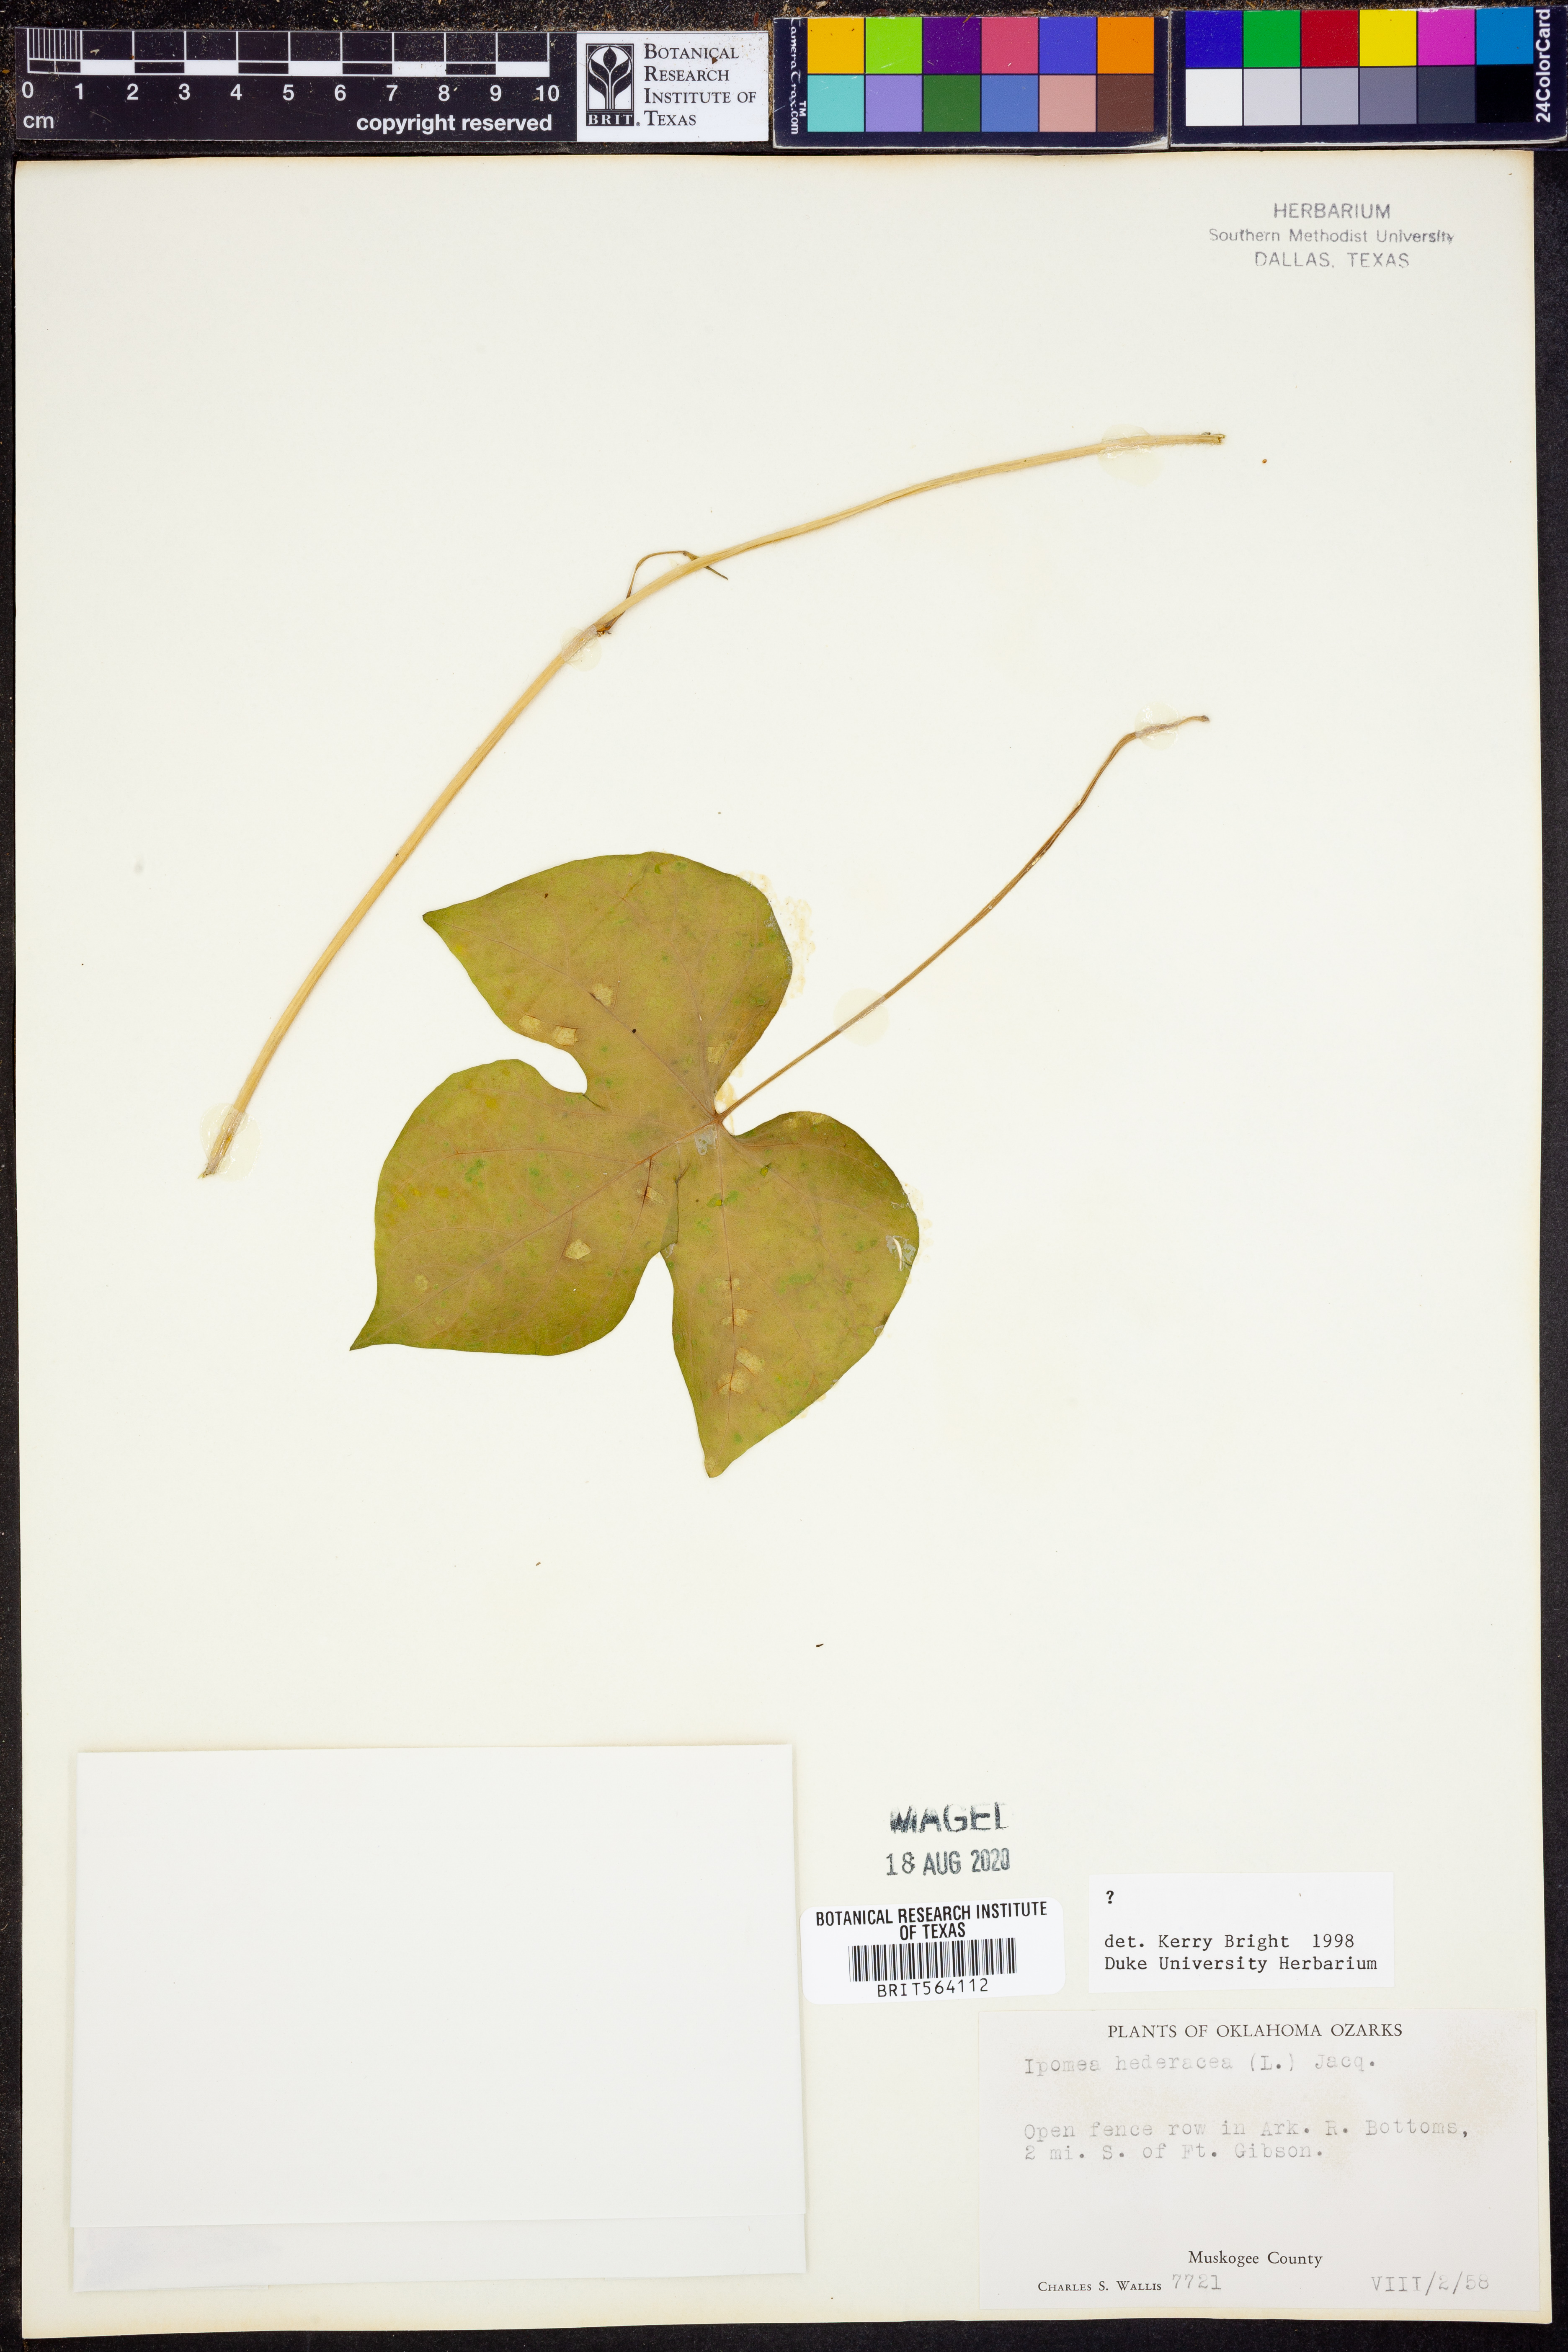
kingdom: Plantae
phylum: Tracheophyta
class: Magnoliopsida
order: Solanales
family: Convolvulaceae
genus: Ipomoea
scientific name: Ipomoea hederacea
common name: Ivy-leaved morning-glory
